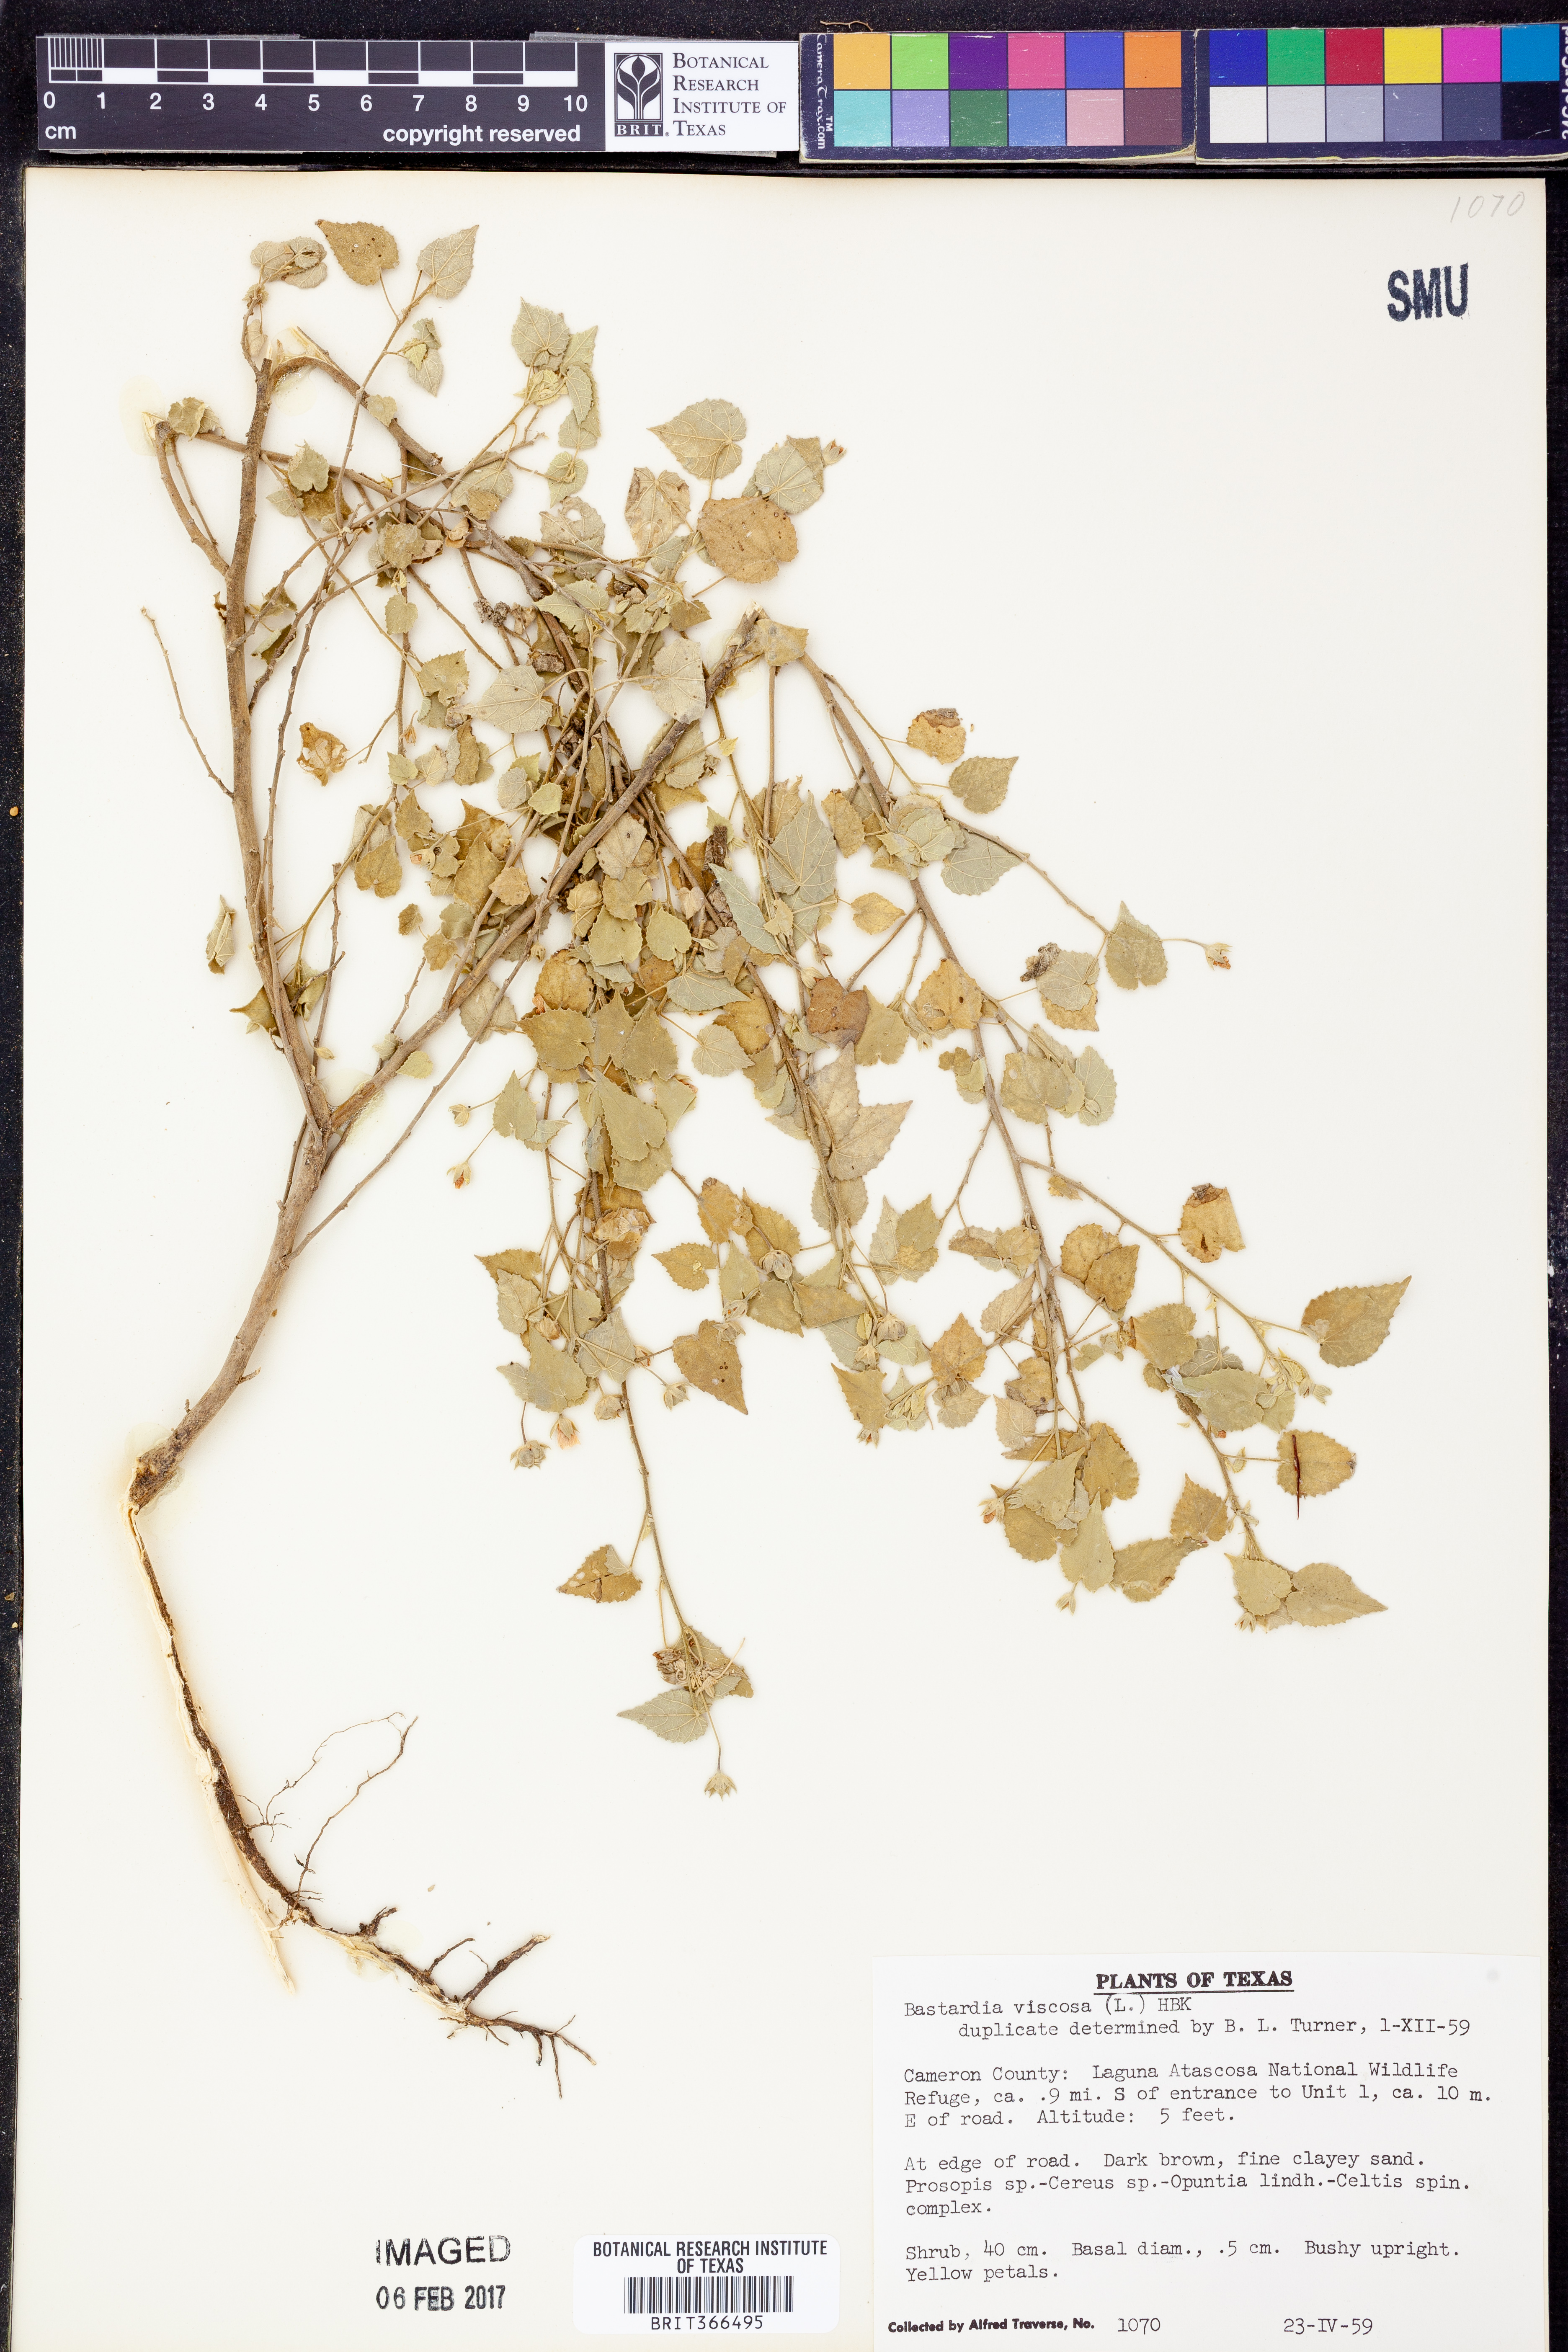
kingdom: Plantae
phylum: Tracheophyta
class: Magnoliopsida
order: Malvales
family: Malvaceae
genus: Abutilon
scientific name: Abutilon viscosum
